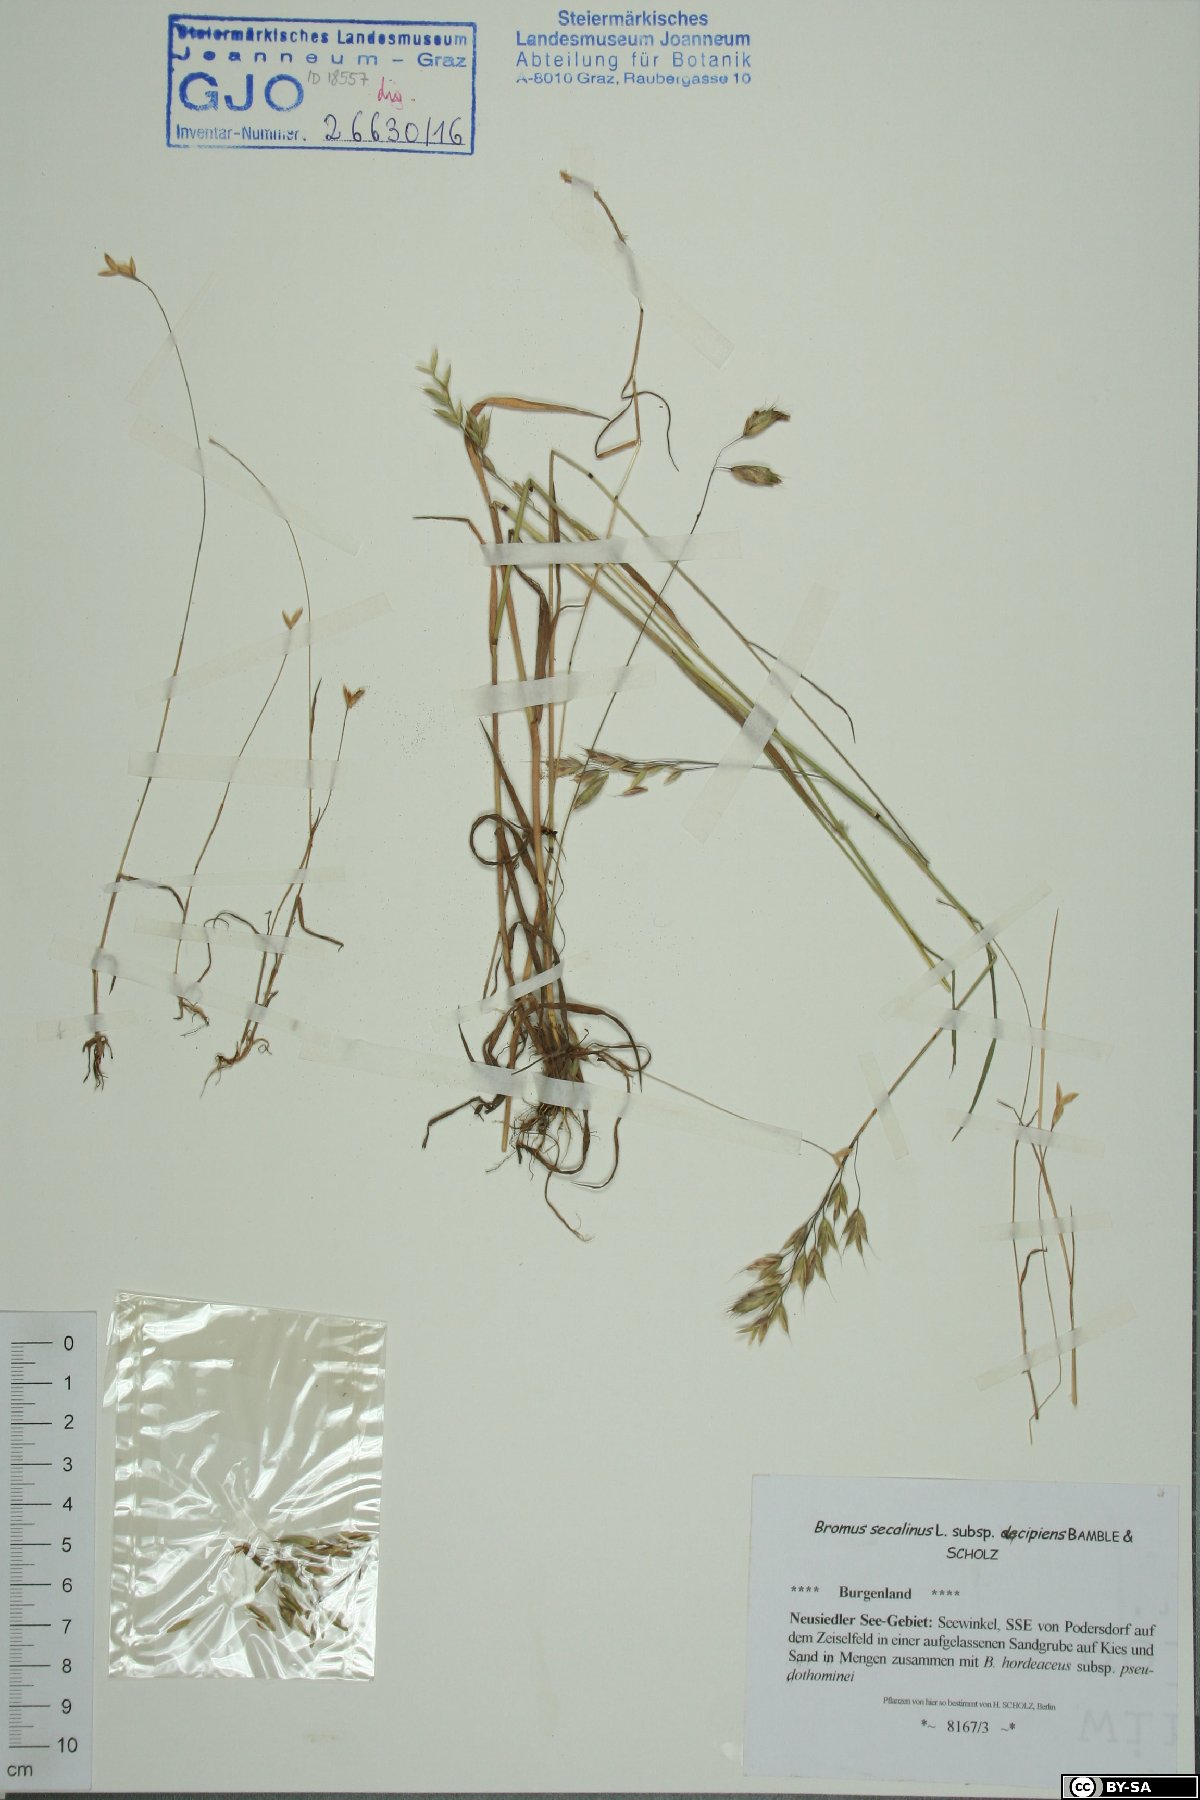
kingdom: Plantae
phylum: Tracheophyta
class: Liliopsida
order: Poales
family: Poaceae
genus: Bromus
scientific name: Bromus secalinus
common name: Rye brome
